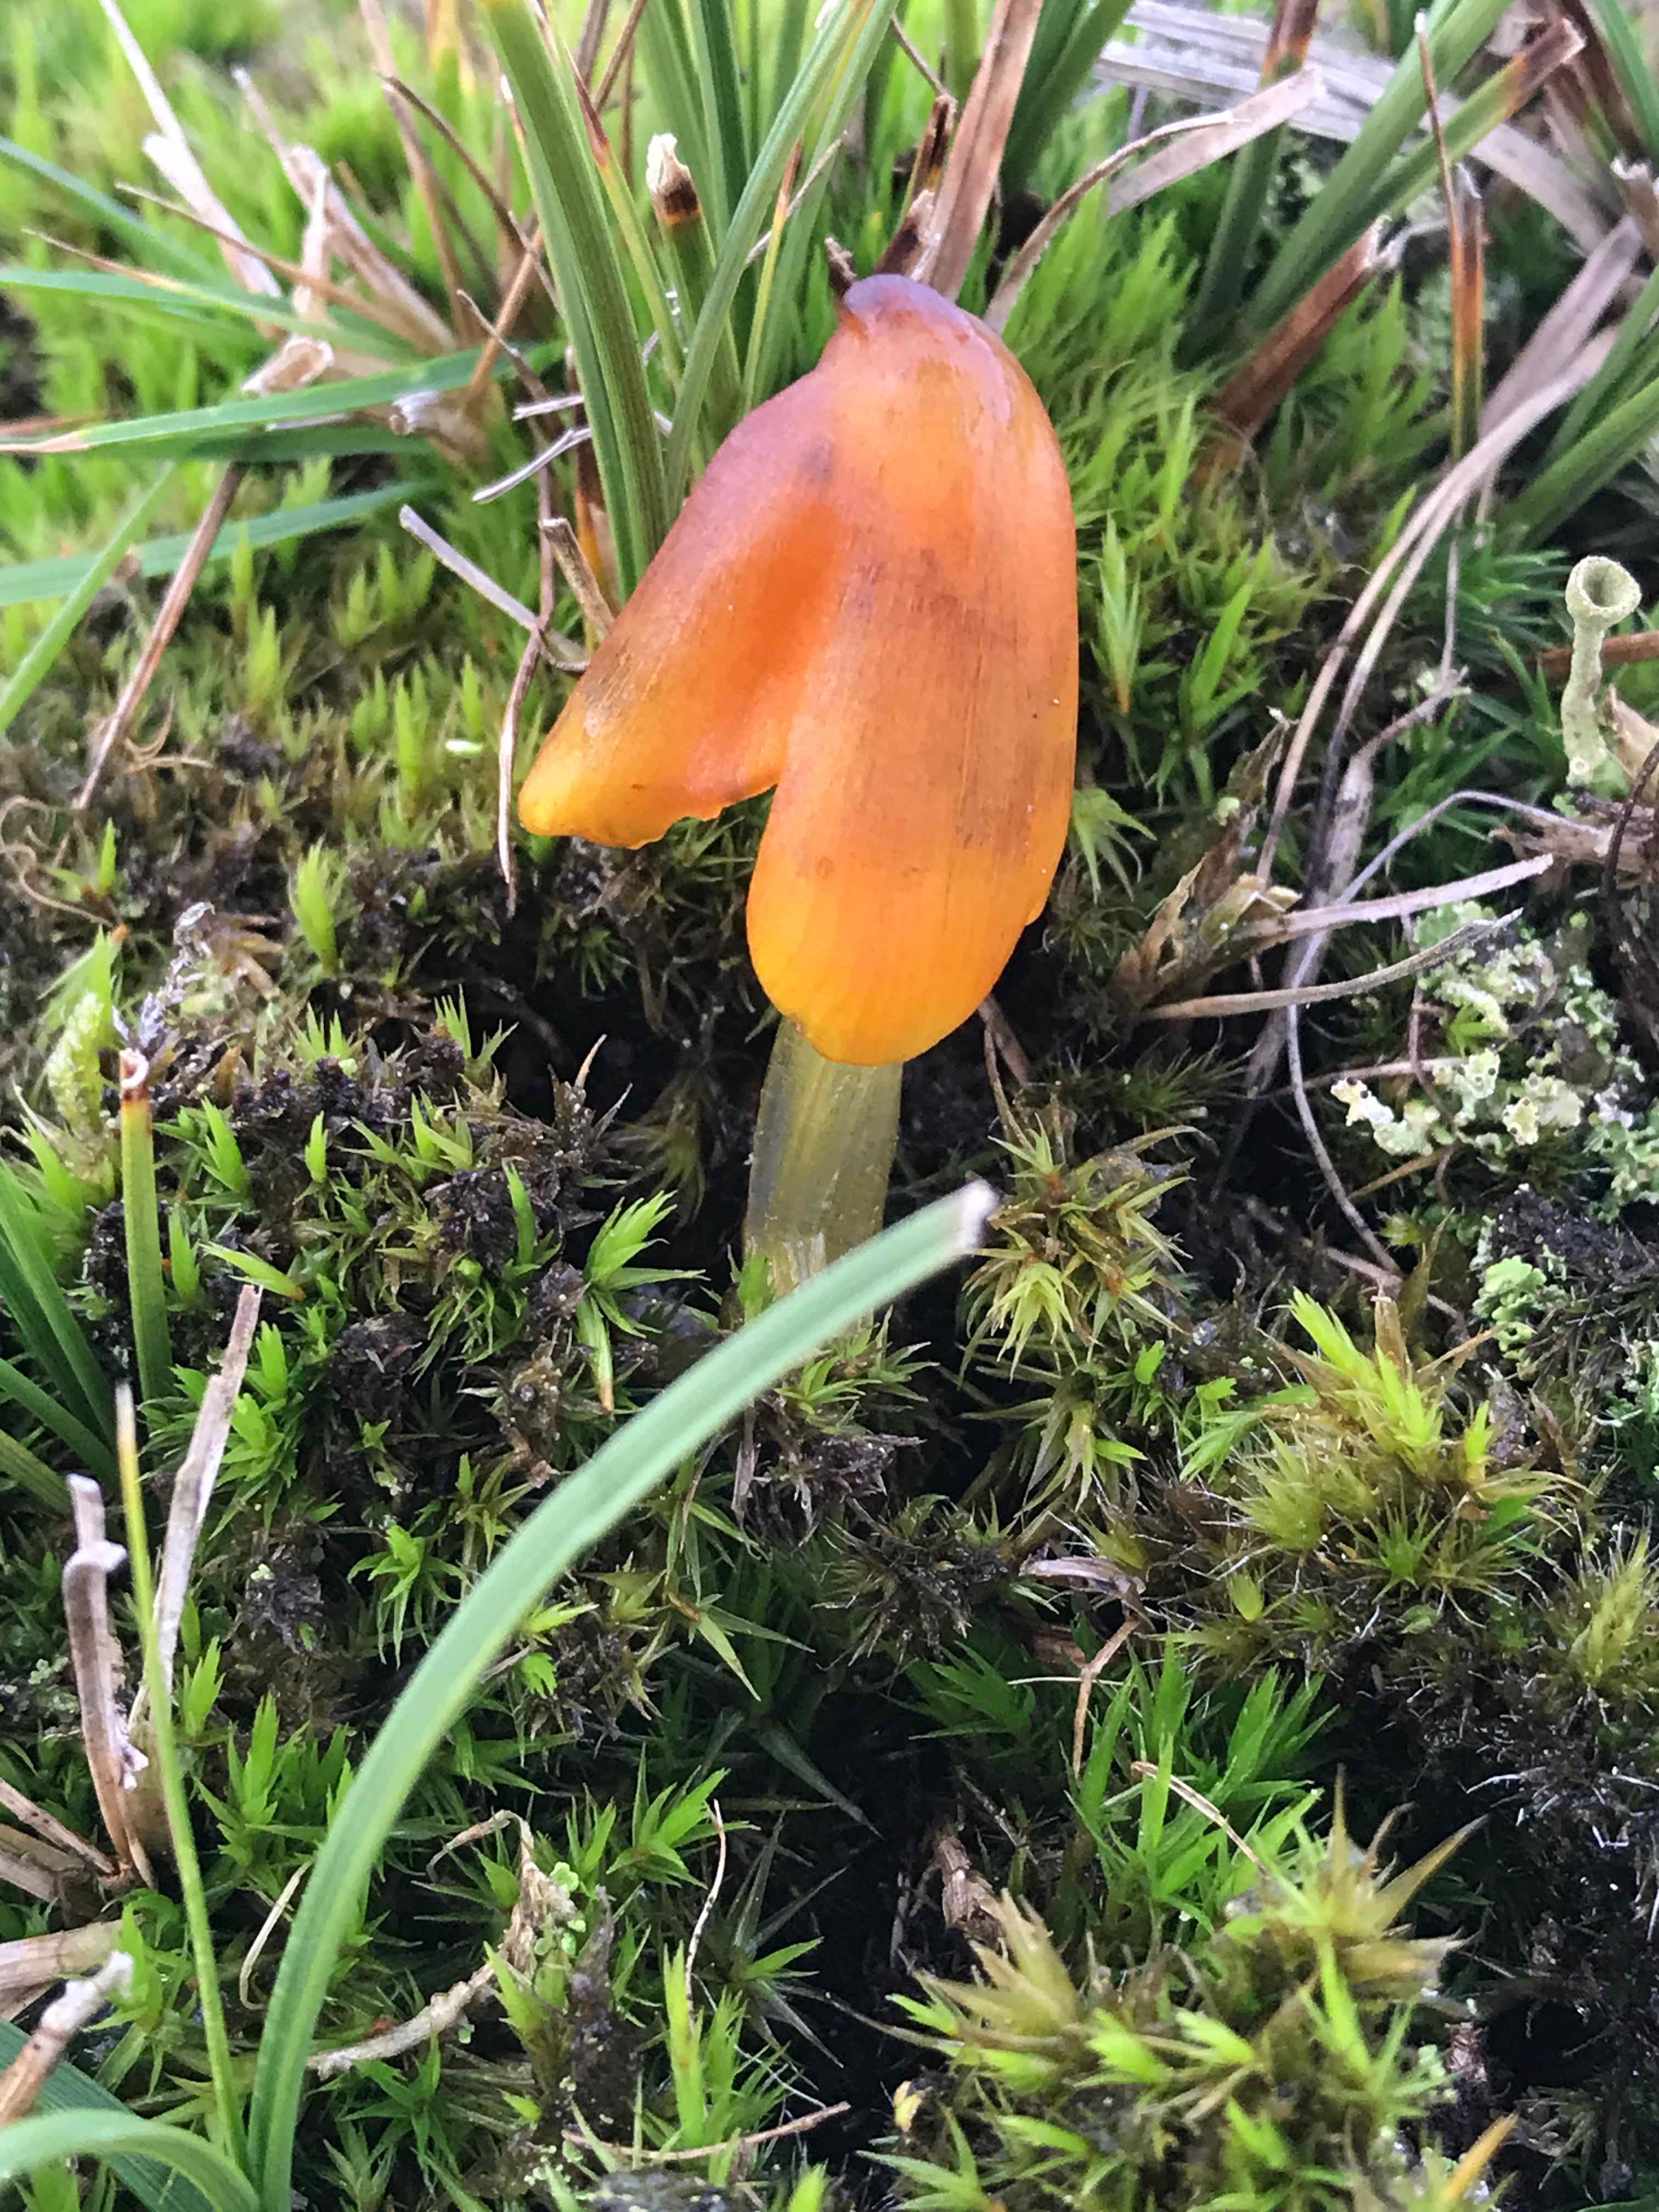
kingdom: Fungi
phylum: Basidiomycota
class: Agaricomycetes
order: Agaricales
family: Hygrophoraceae
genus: Hygrocybe
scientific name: Hygrocybe conica
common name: kegle-vokshat
